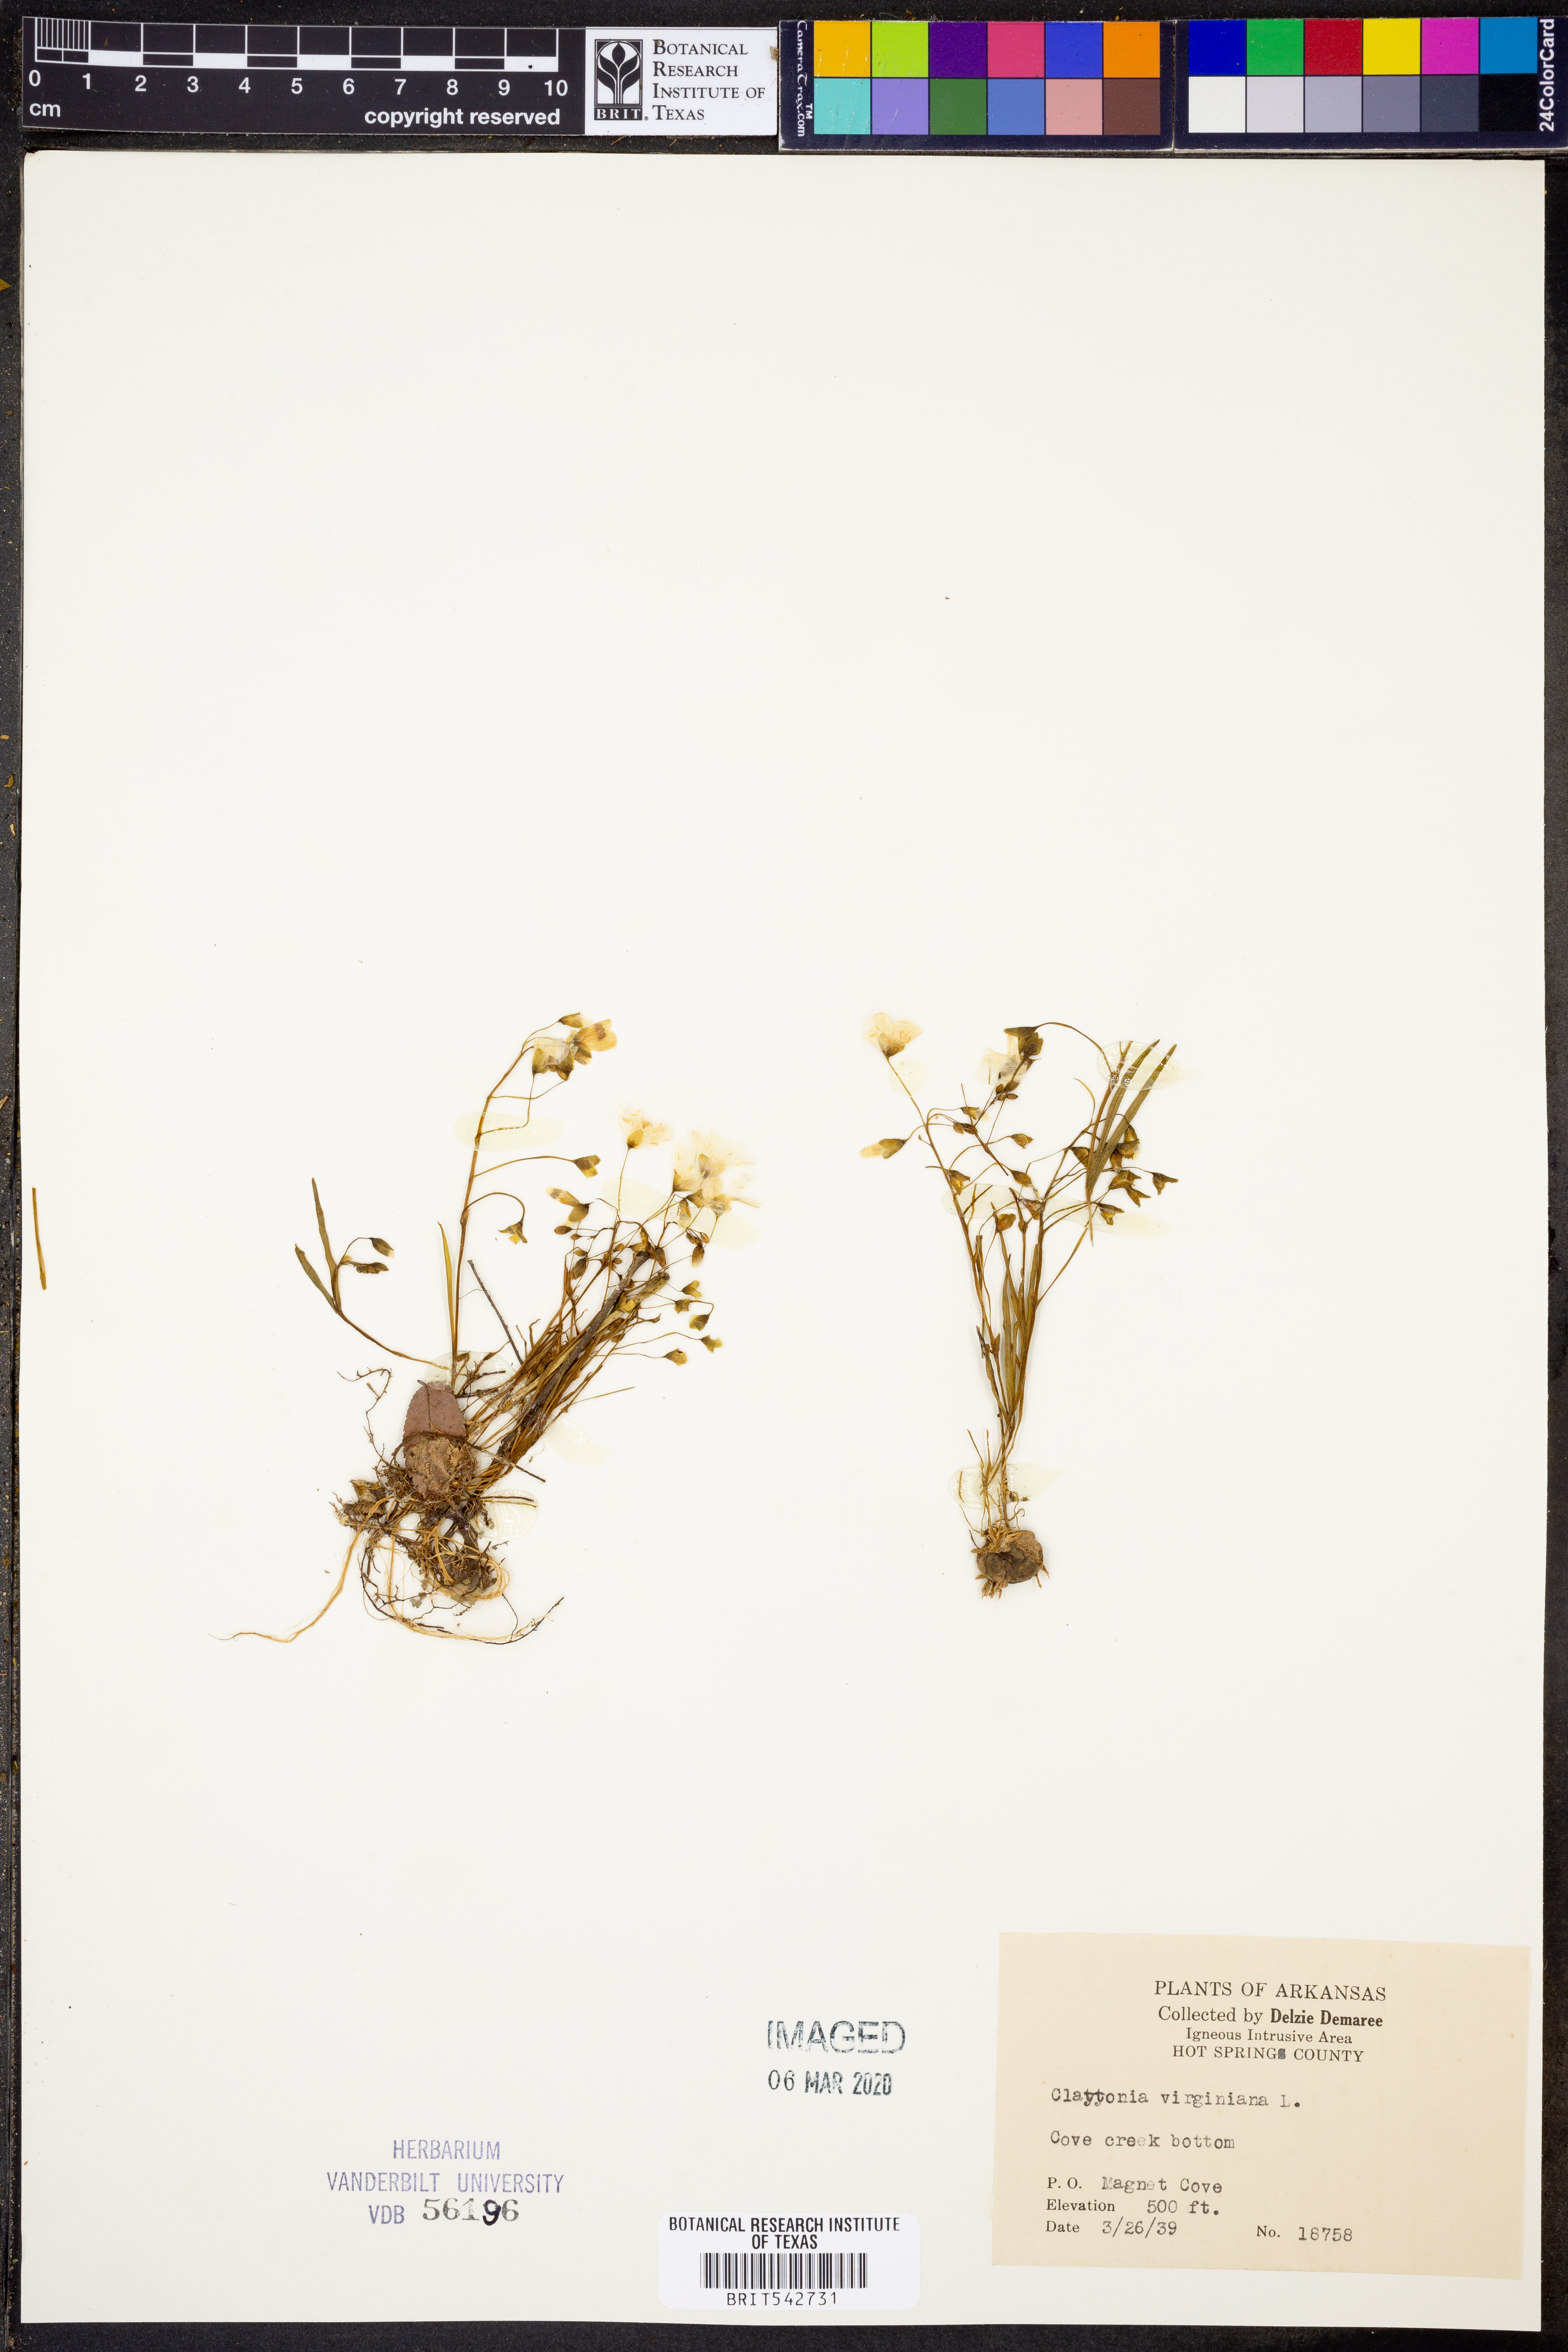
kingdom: Plantae
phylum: Tracheophyta
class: Magnoliopsida
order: Caryophyllales
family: Montiaceae
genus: Claytonia
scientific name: Claytonia virginica
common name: Virginia springbeauty
